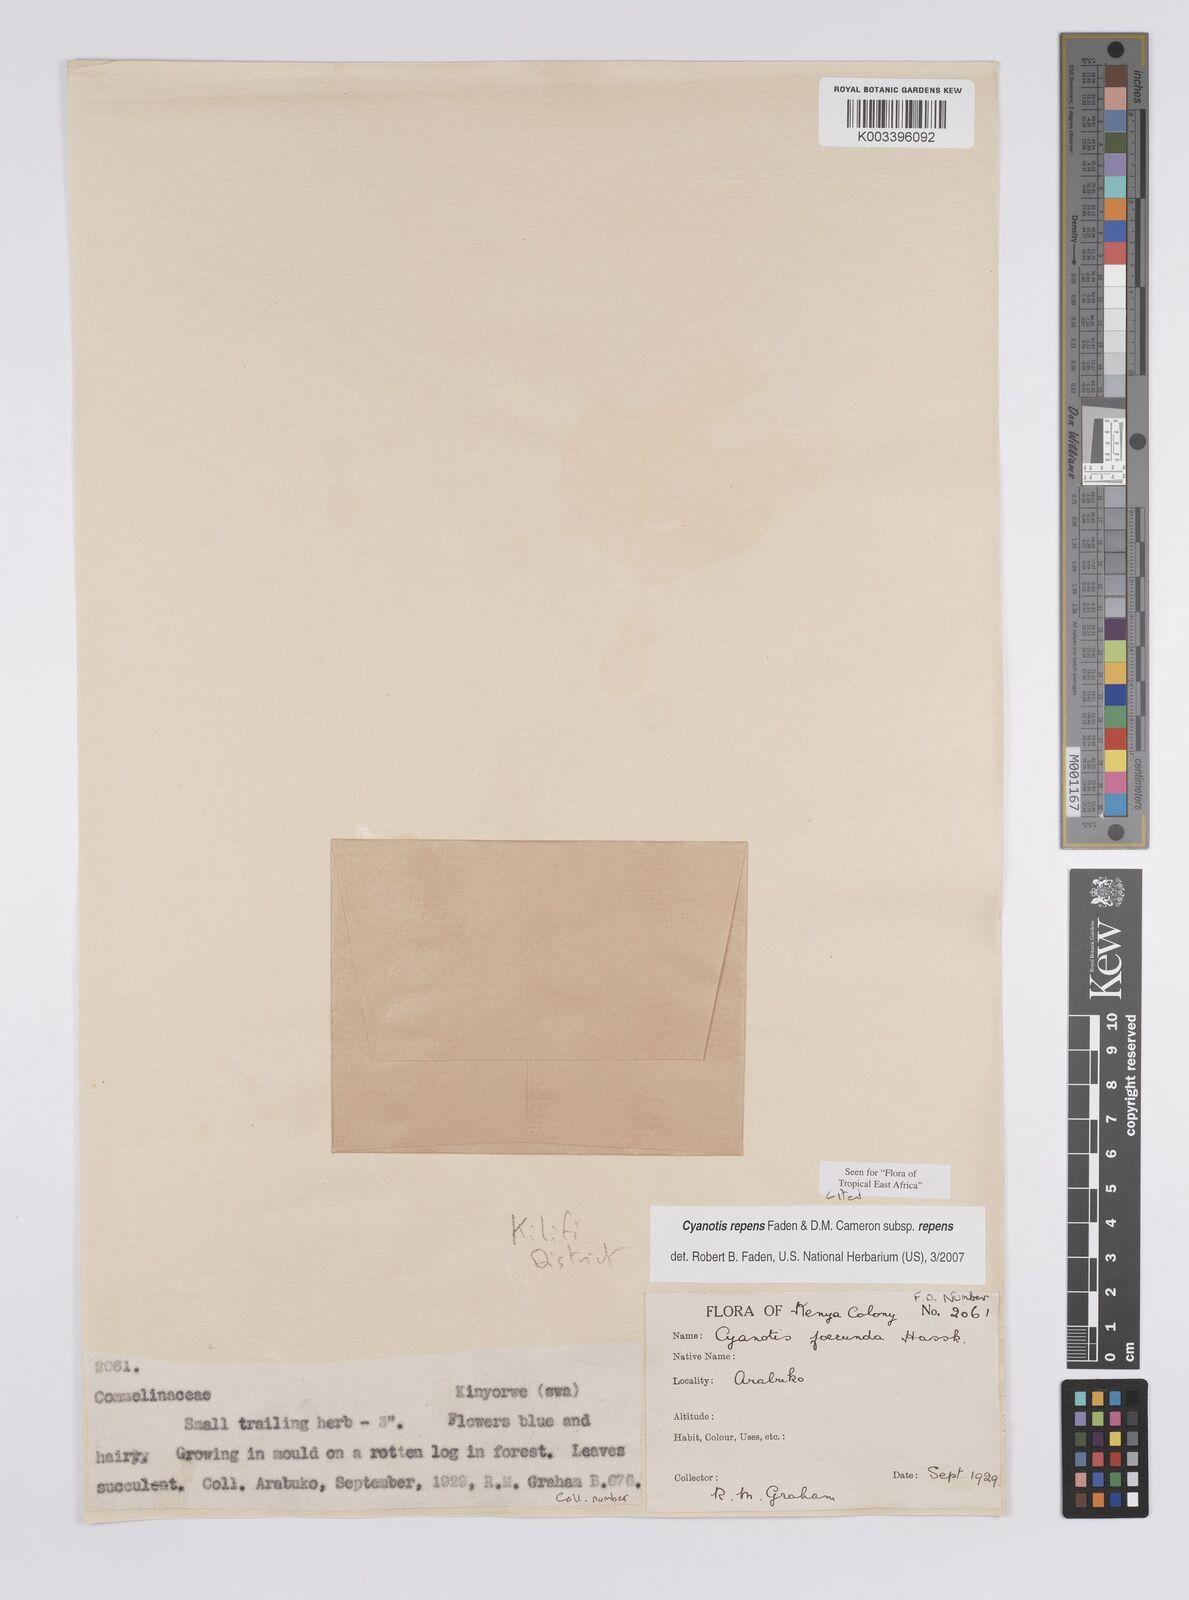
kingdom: Plantae
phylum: Tracheophyta
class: Liliopsida
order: Commelinales
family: Commelinaceae
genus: Cyanotis
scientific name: Cyanotis repens
